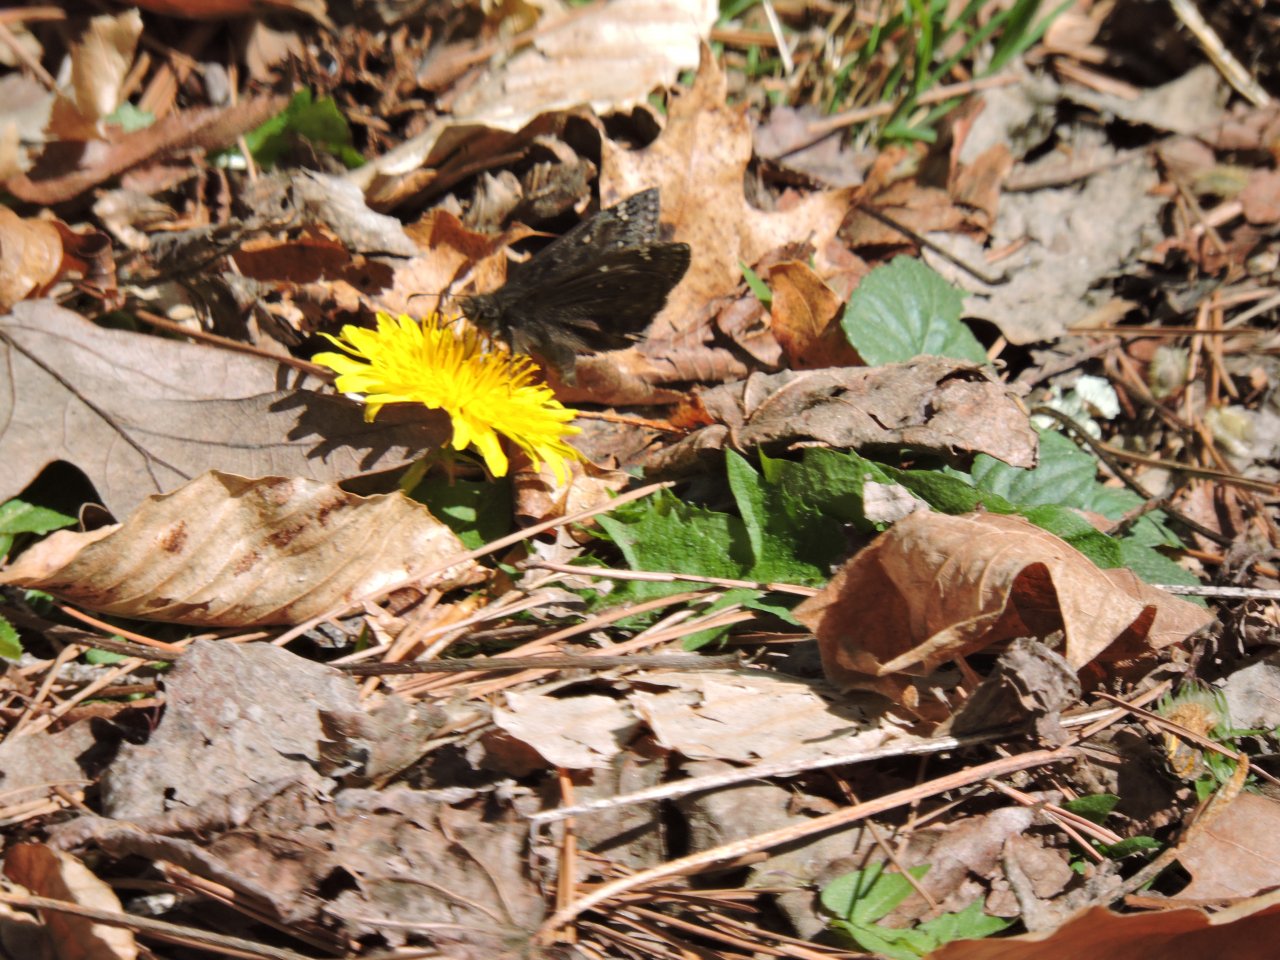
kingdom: Animalia
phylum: Arthropoda
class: Insecta
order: Lepidoptera
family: Hesperiidae
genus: Gesta
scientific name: Gesta
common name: Horace's Duskywing
